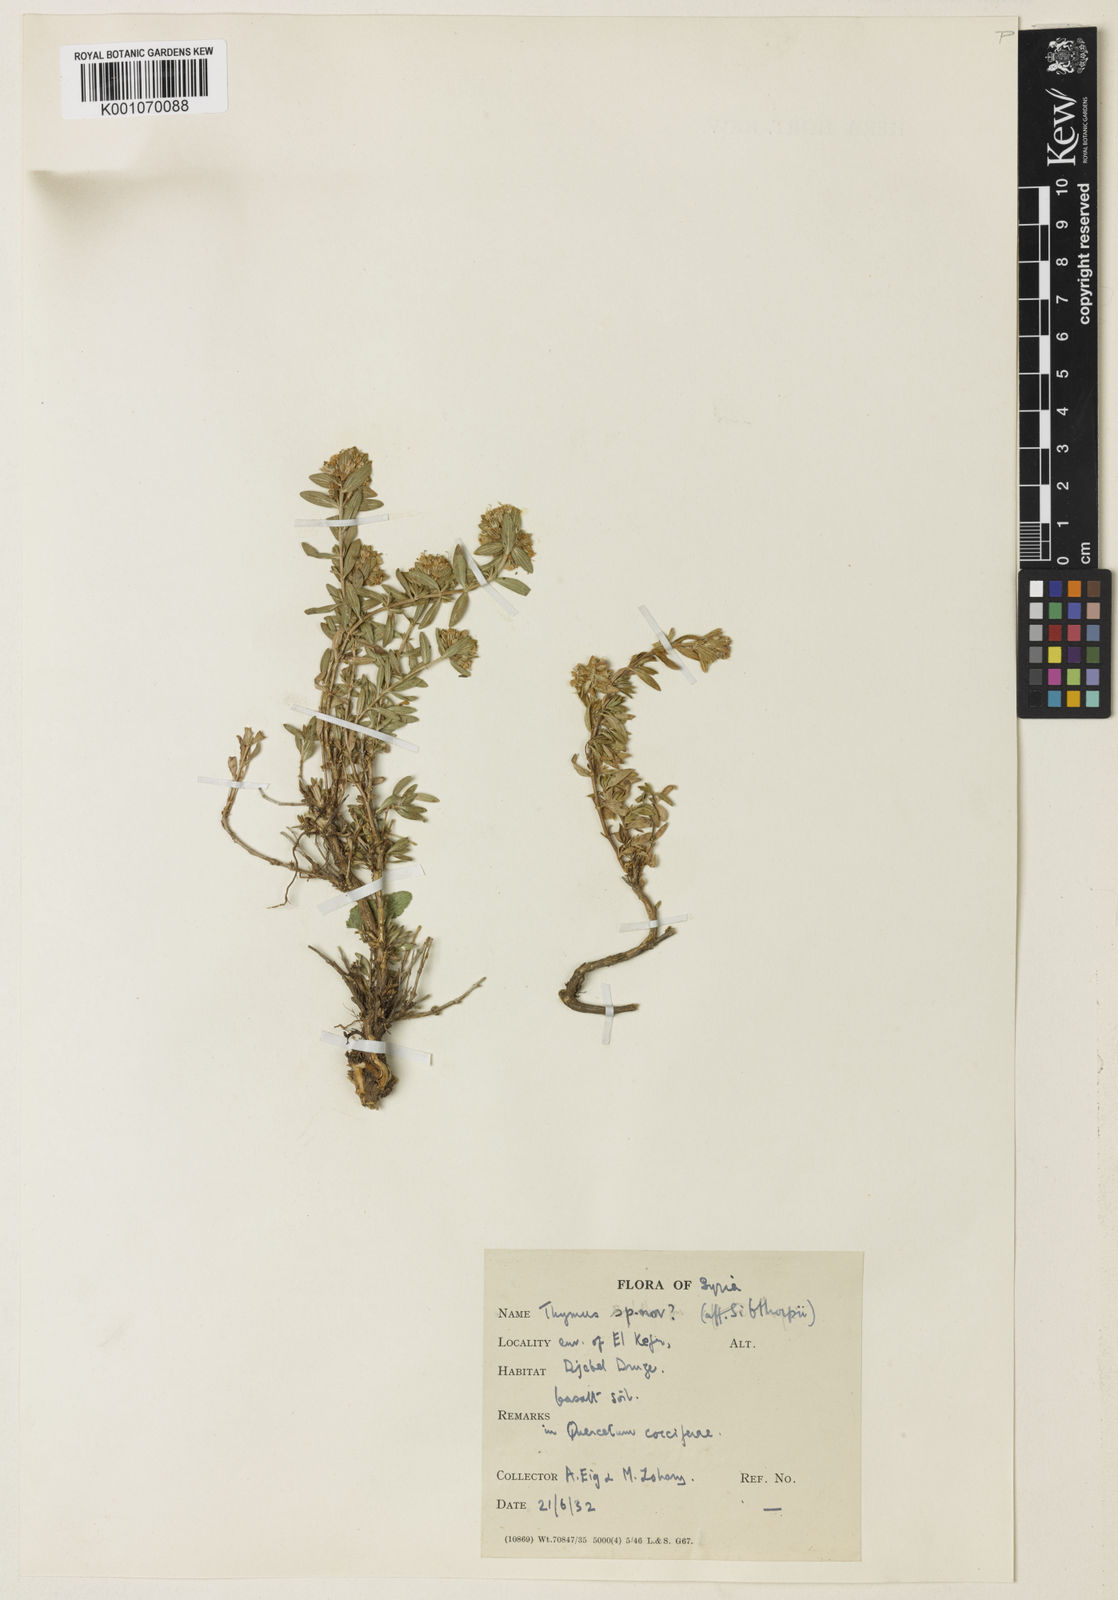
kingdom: Plantae
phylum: Tracheophyta
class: Magnoliopsida
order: Lamiales
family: Lamiaceae
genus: Thymus
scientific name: Thymus
